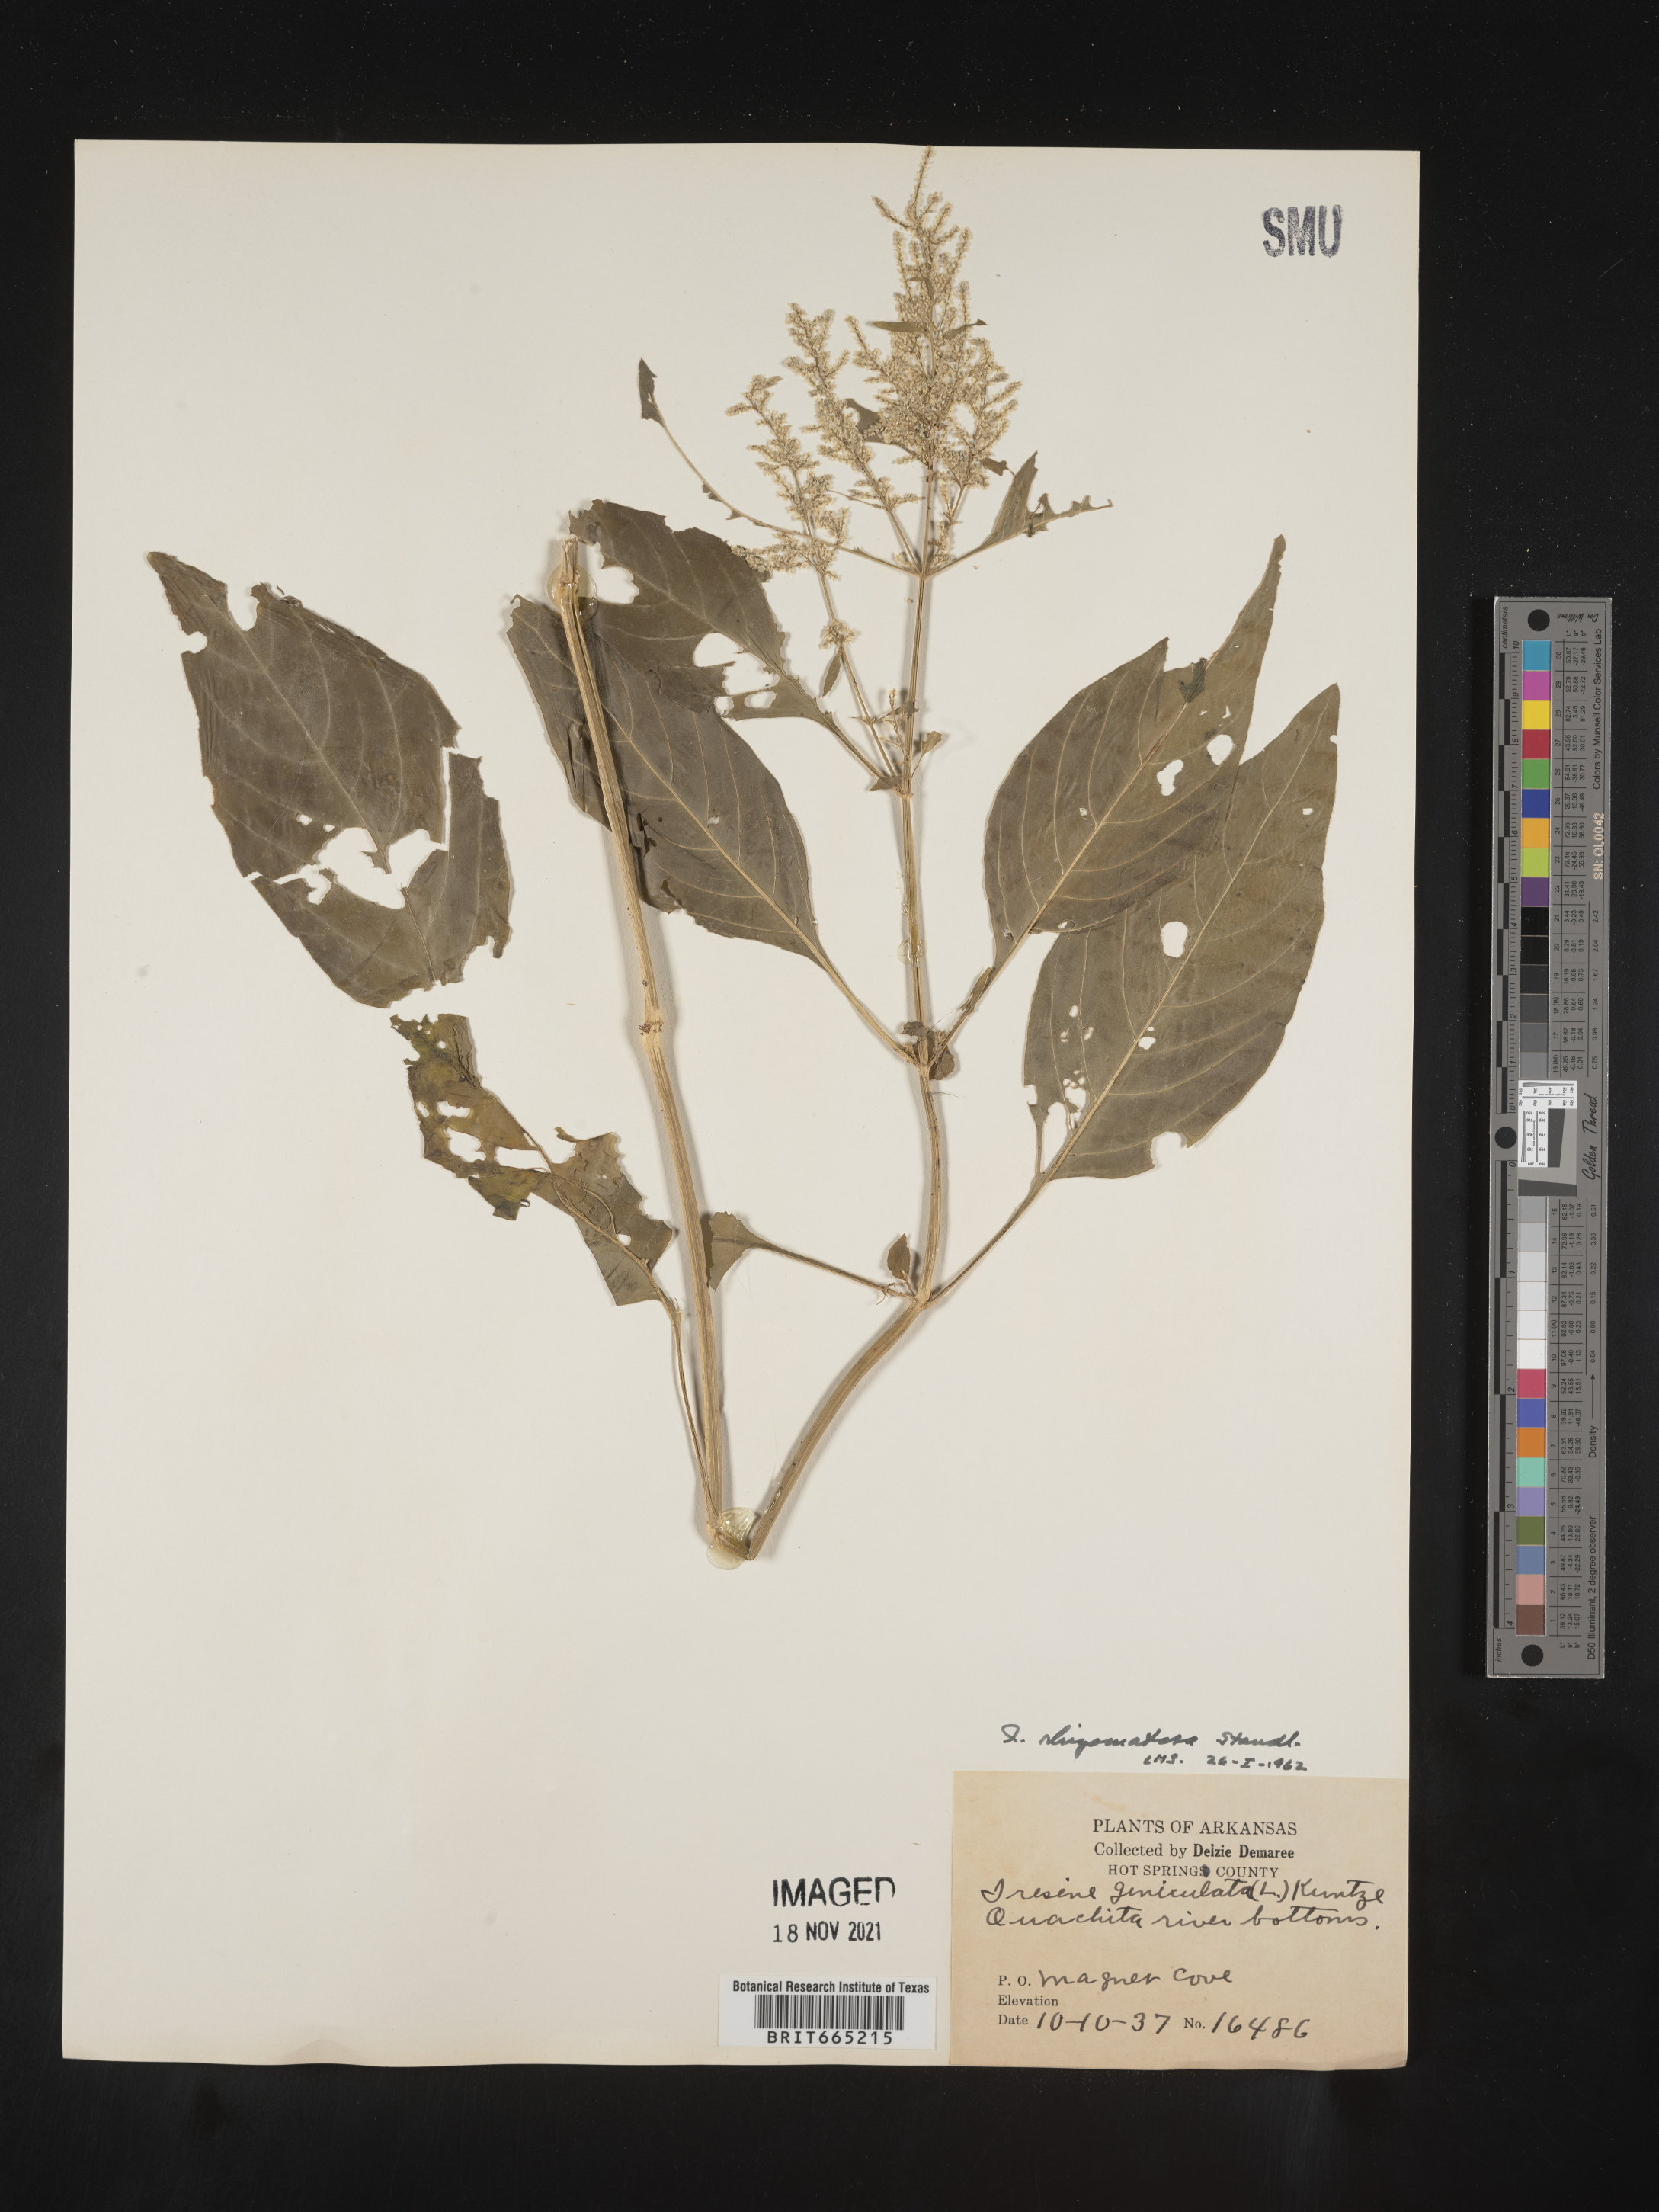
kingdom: Plantae
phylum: Tracheophyta
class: Magnoliopsida
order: Caryophyllales
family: Amaranthaceae
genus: Iresine
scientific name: Iresine rhizomatosa
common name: Juda's-bush
